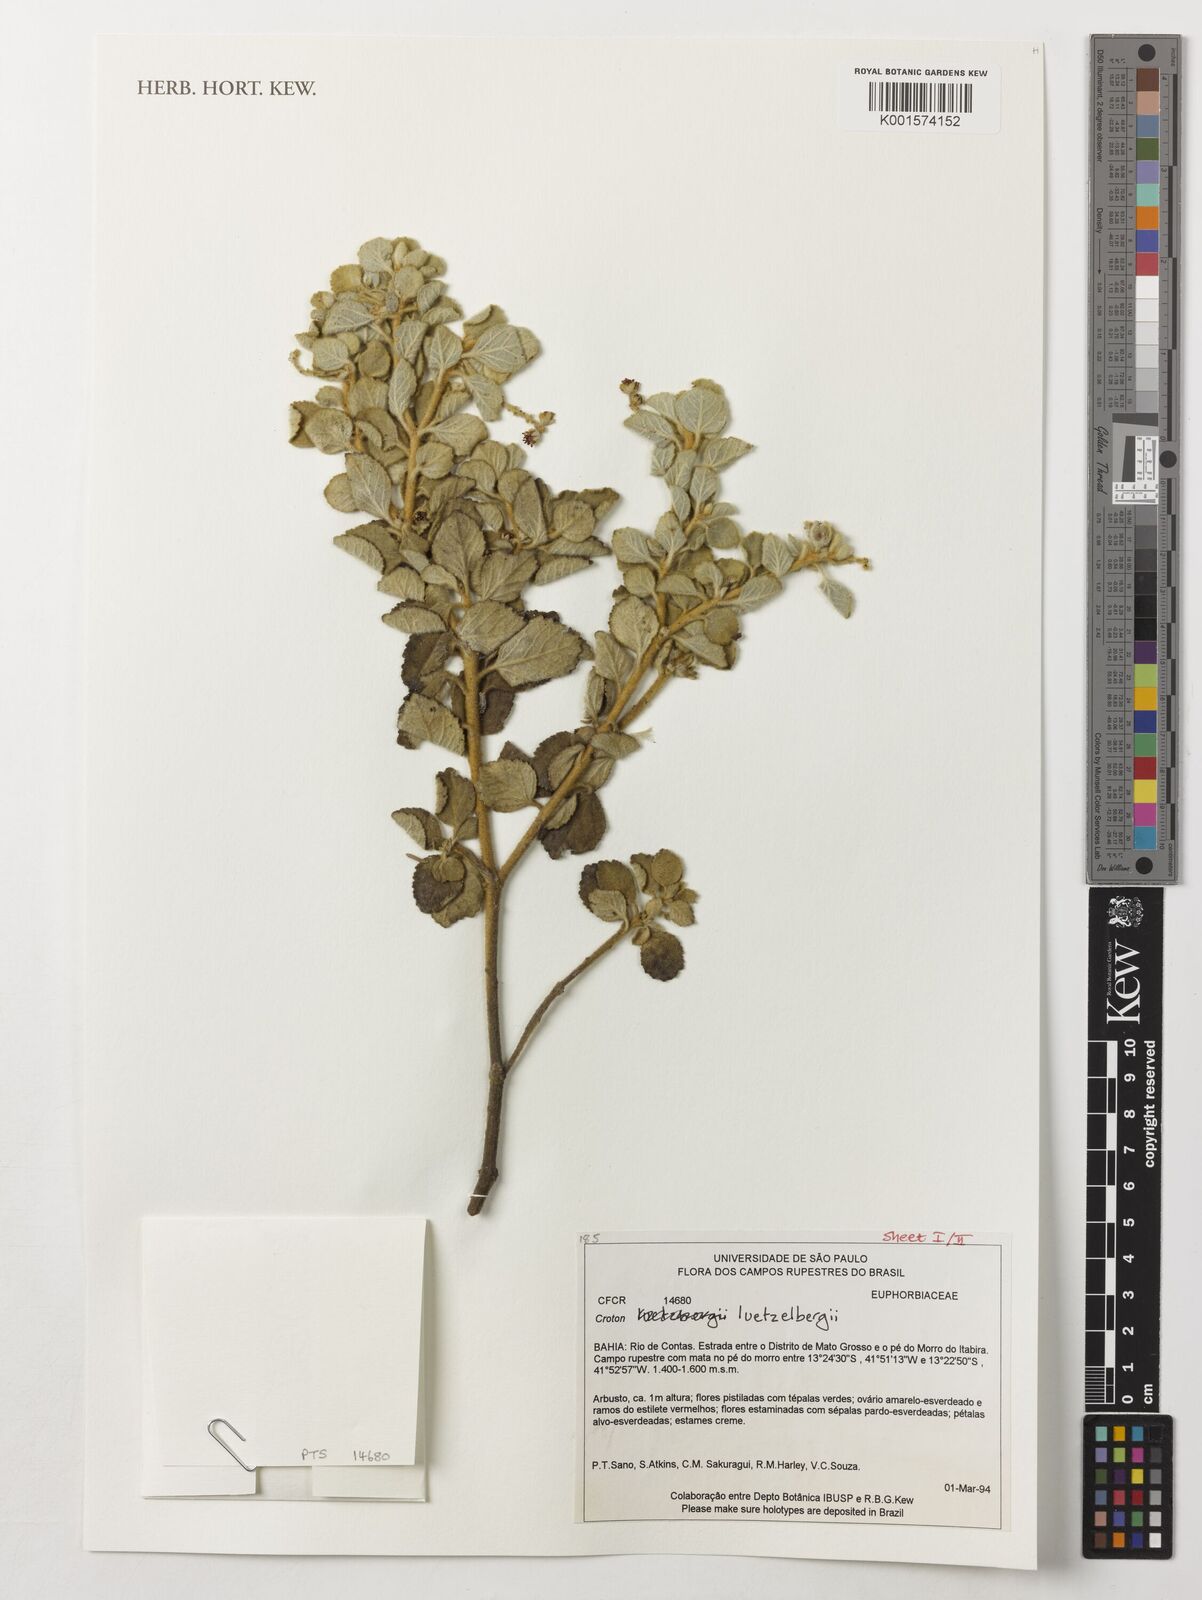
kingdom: Plantae
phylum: Tracheophyta
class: Magnoliopsida
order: Malpighiales
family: Euphorbiaceae
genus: Croton
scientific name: Croton luetzelburgii
